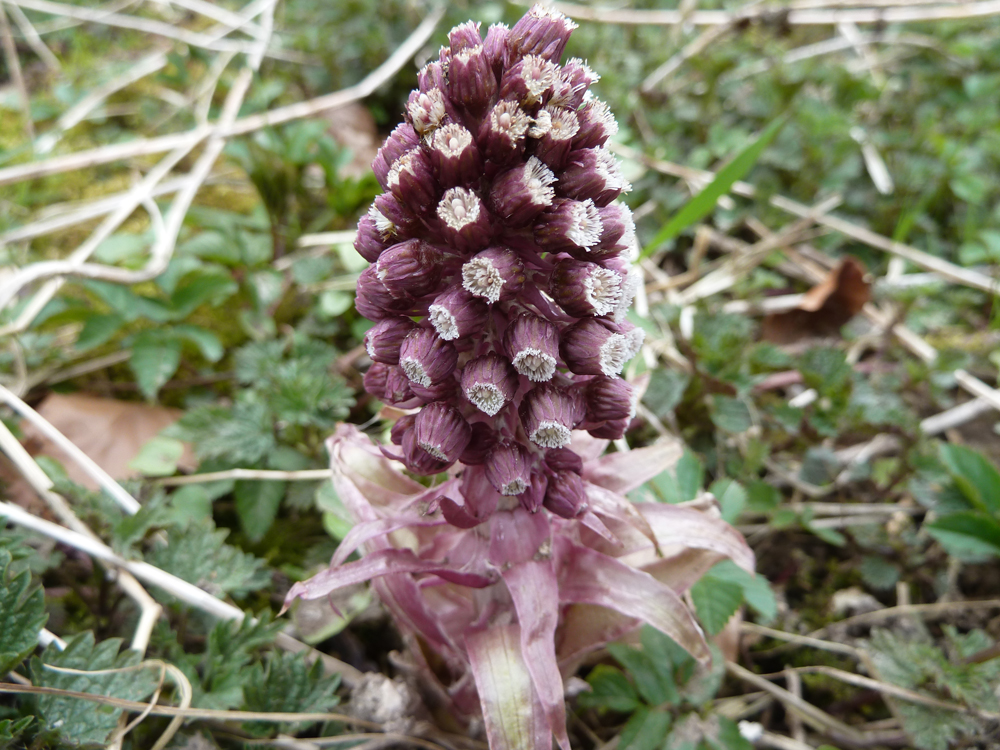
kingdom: Plantae
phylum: Tracheophyta
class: Magnoliopsida
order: Asterales
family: Asteraceae
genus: Petasites
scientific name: Petasites hybridus
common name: Butterbur
